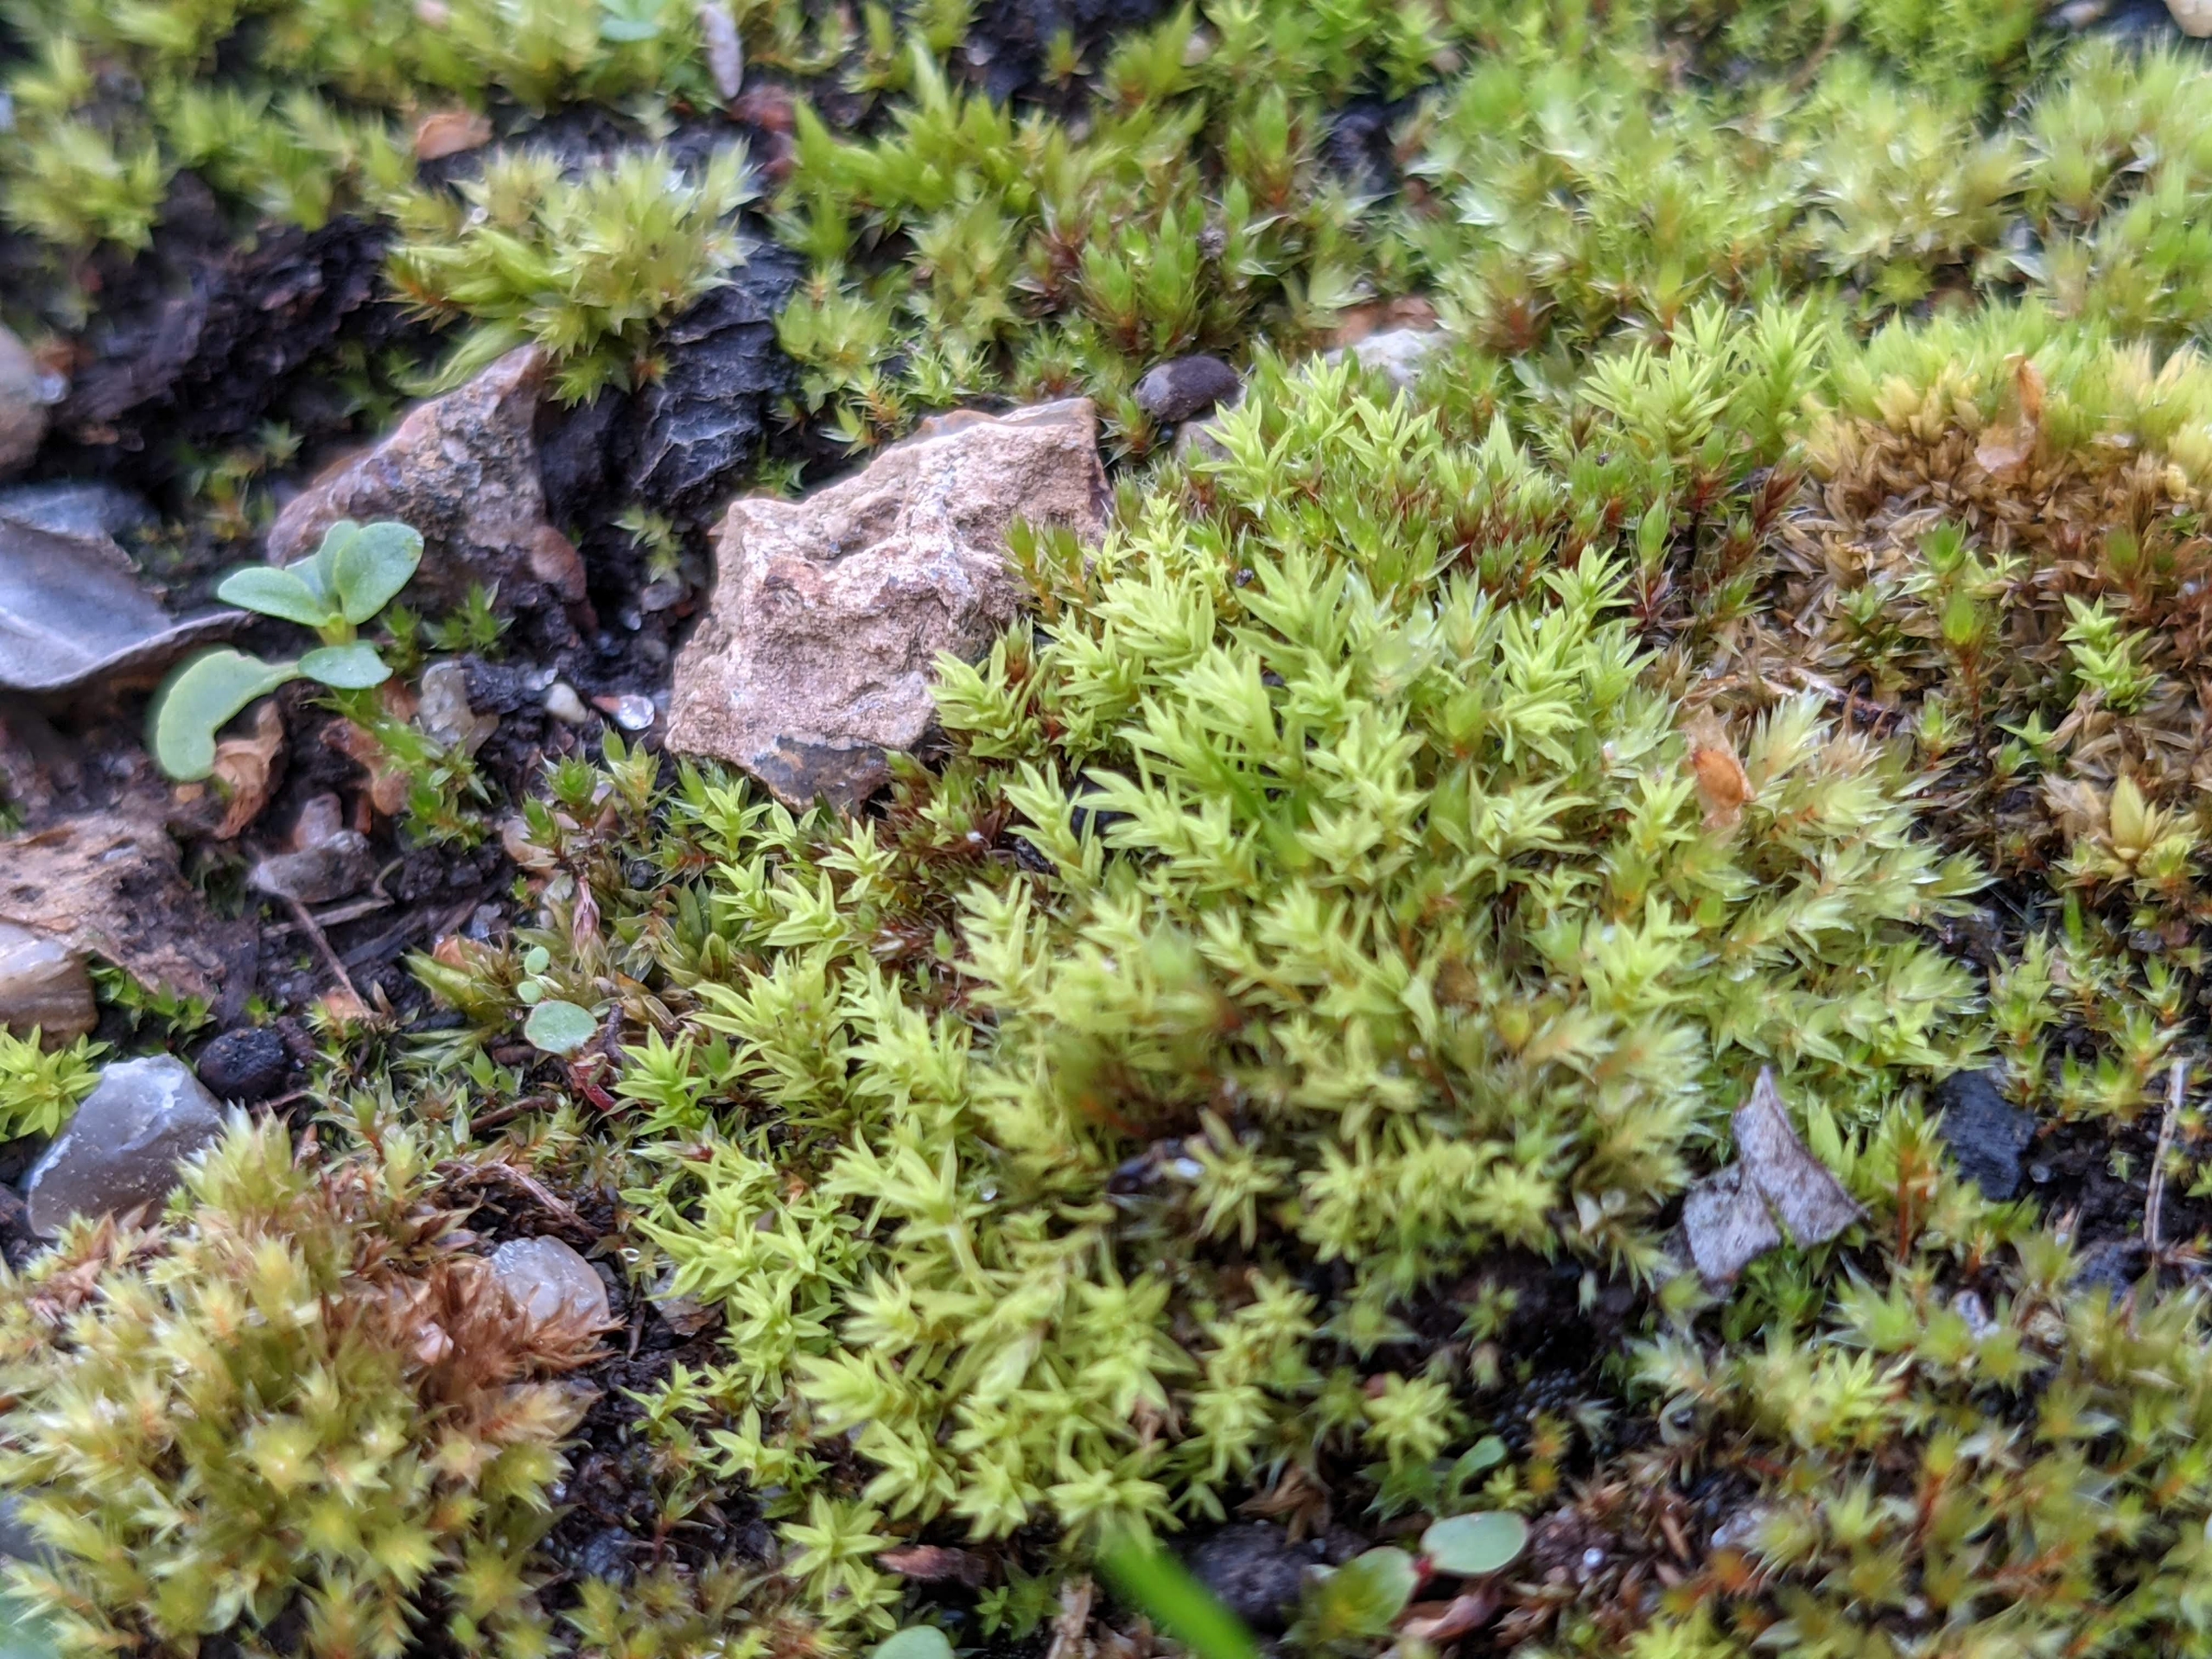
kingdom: Plantae
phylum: Bryophyta
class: Bryopsida
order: Pottiales
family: Pottiaceae
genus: Barbula
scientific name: Barbula unguiculata
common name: Almindelig skægtand
